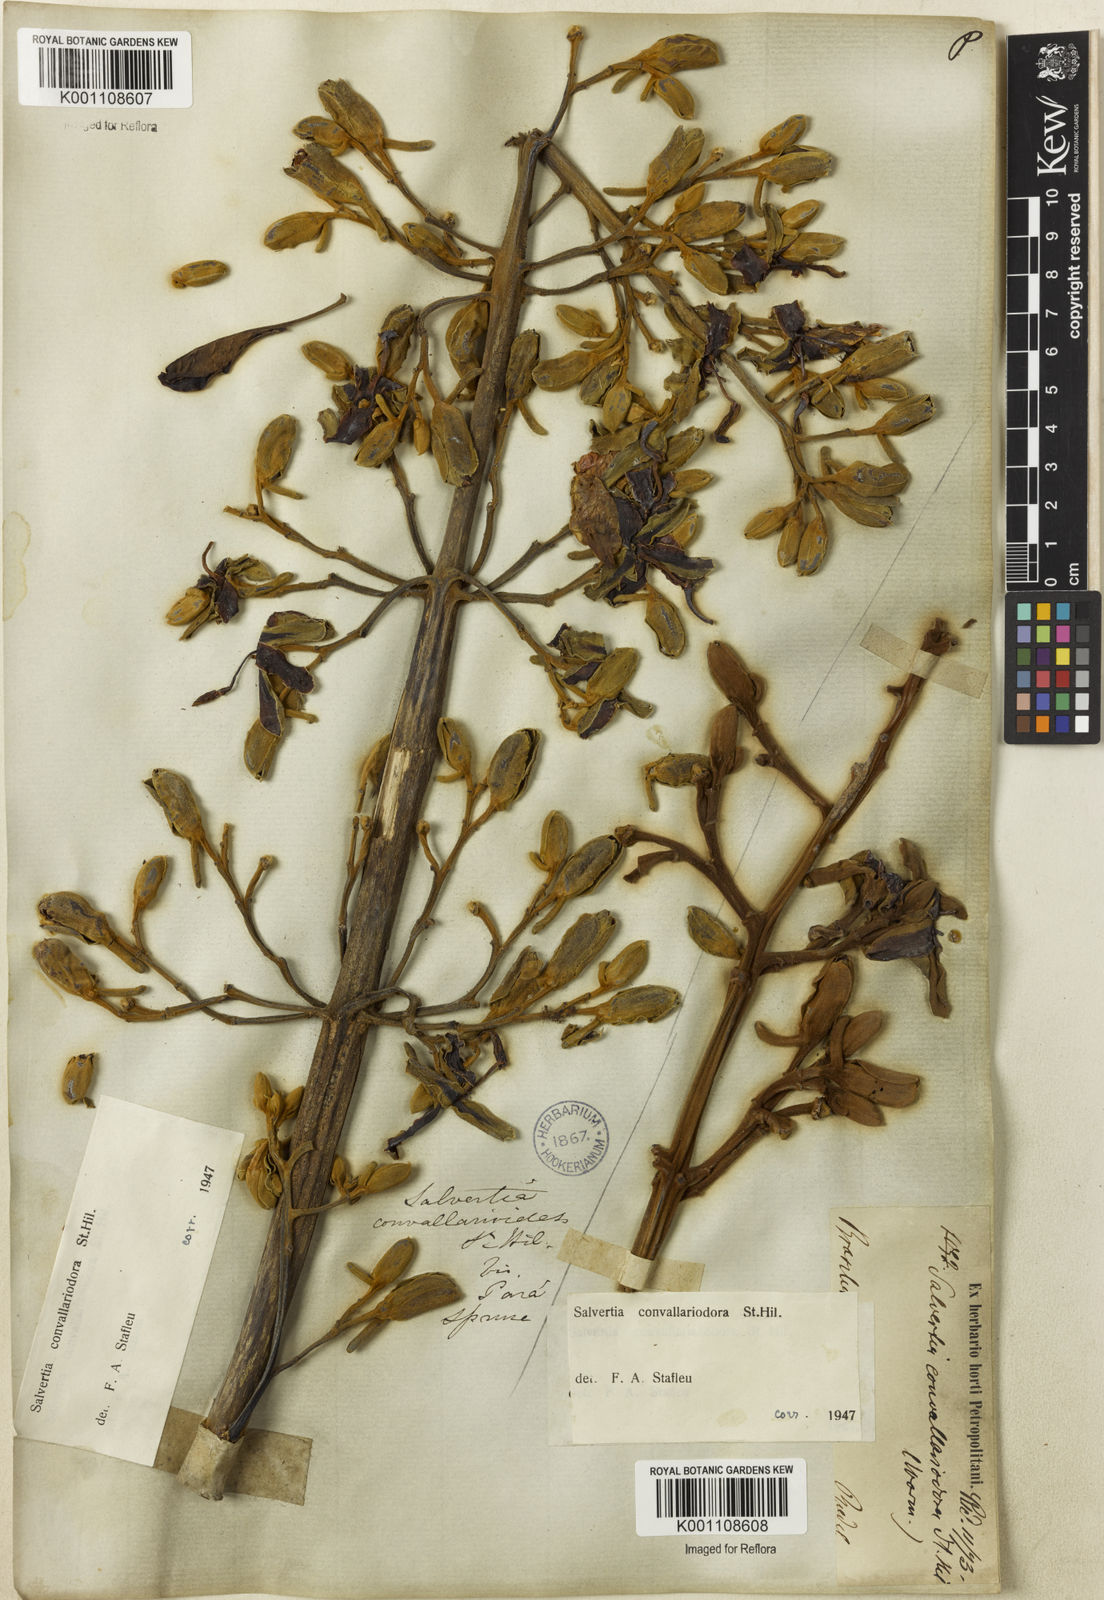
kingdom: Plantae
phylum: Tracheophyta
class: Magnoliopsida
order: Myrtales
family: Vochysiaceae
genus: Salvertia
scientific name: Salvertia convallariodora
